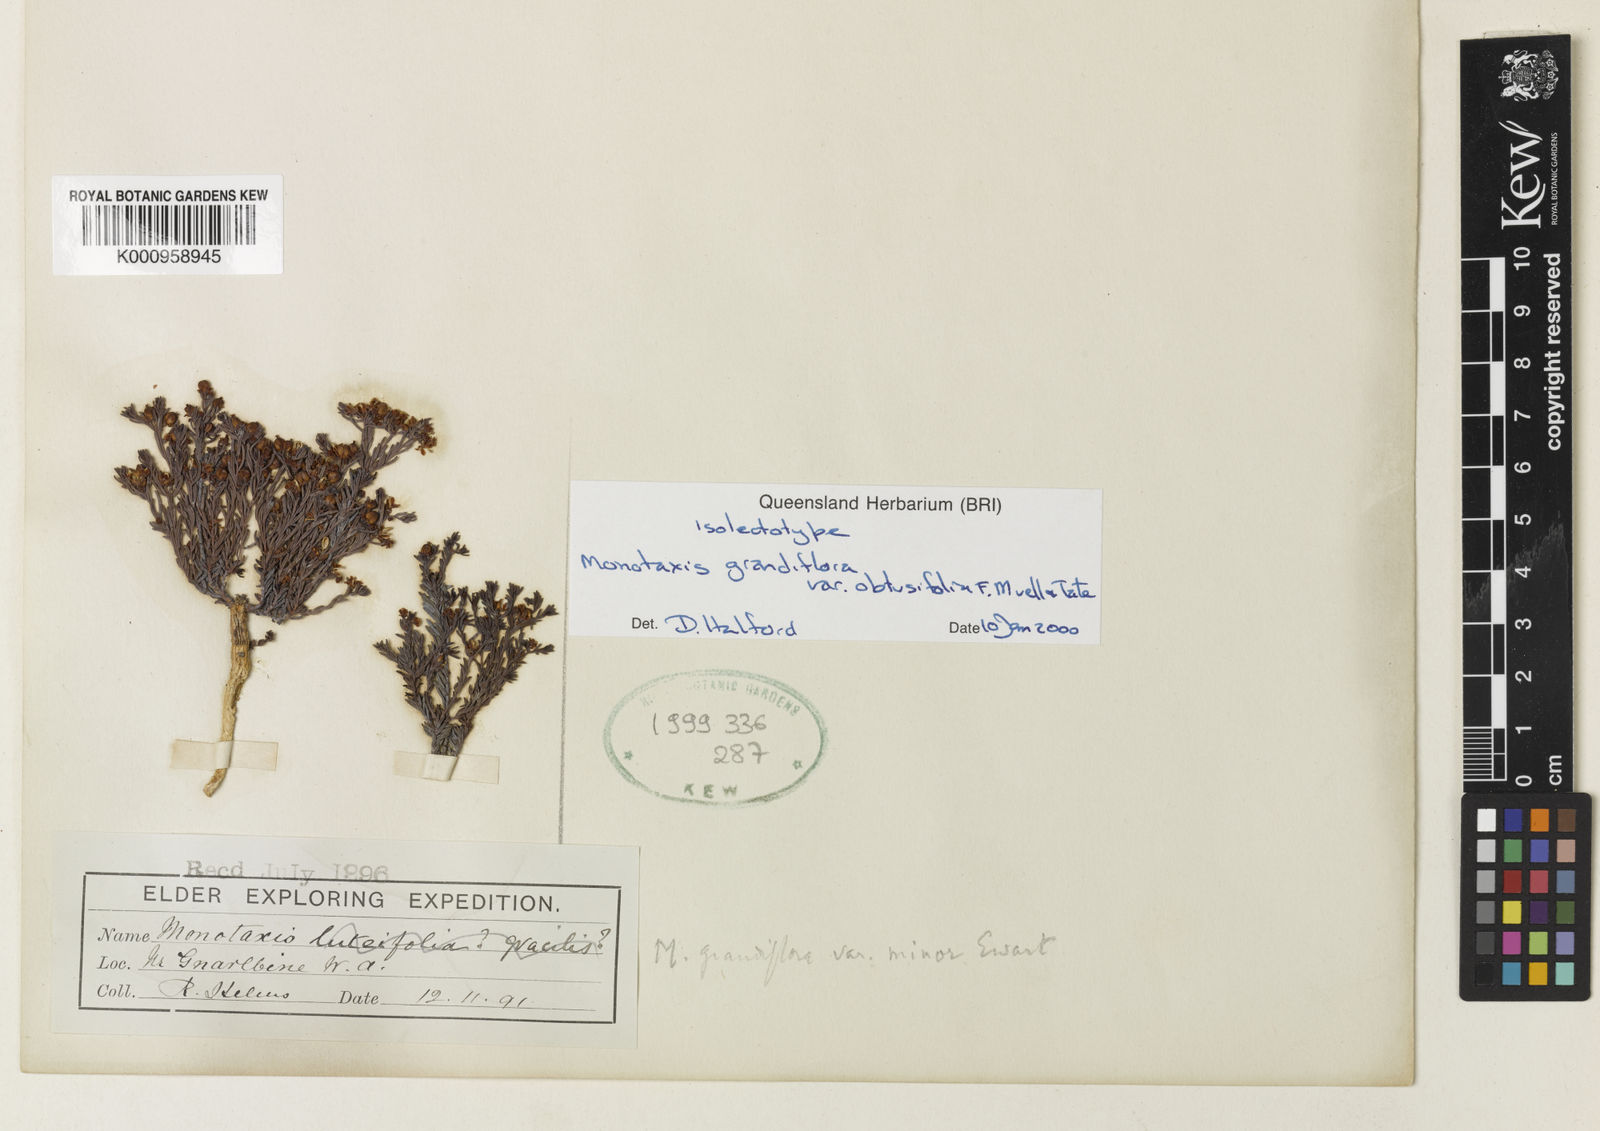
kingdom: Plantae
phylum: Tracheophyta
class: Magnoliopsida
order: Malpighiales
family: Euphorbiaceae
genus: Monotaxis
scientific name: Monotaxis grandiflora
